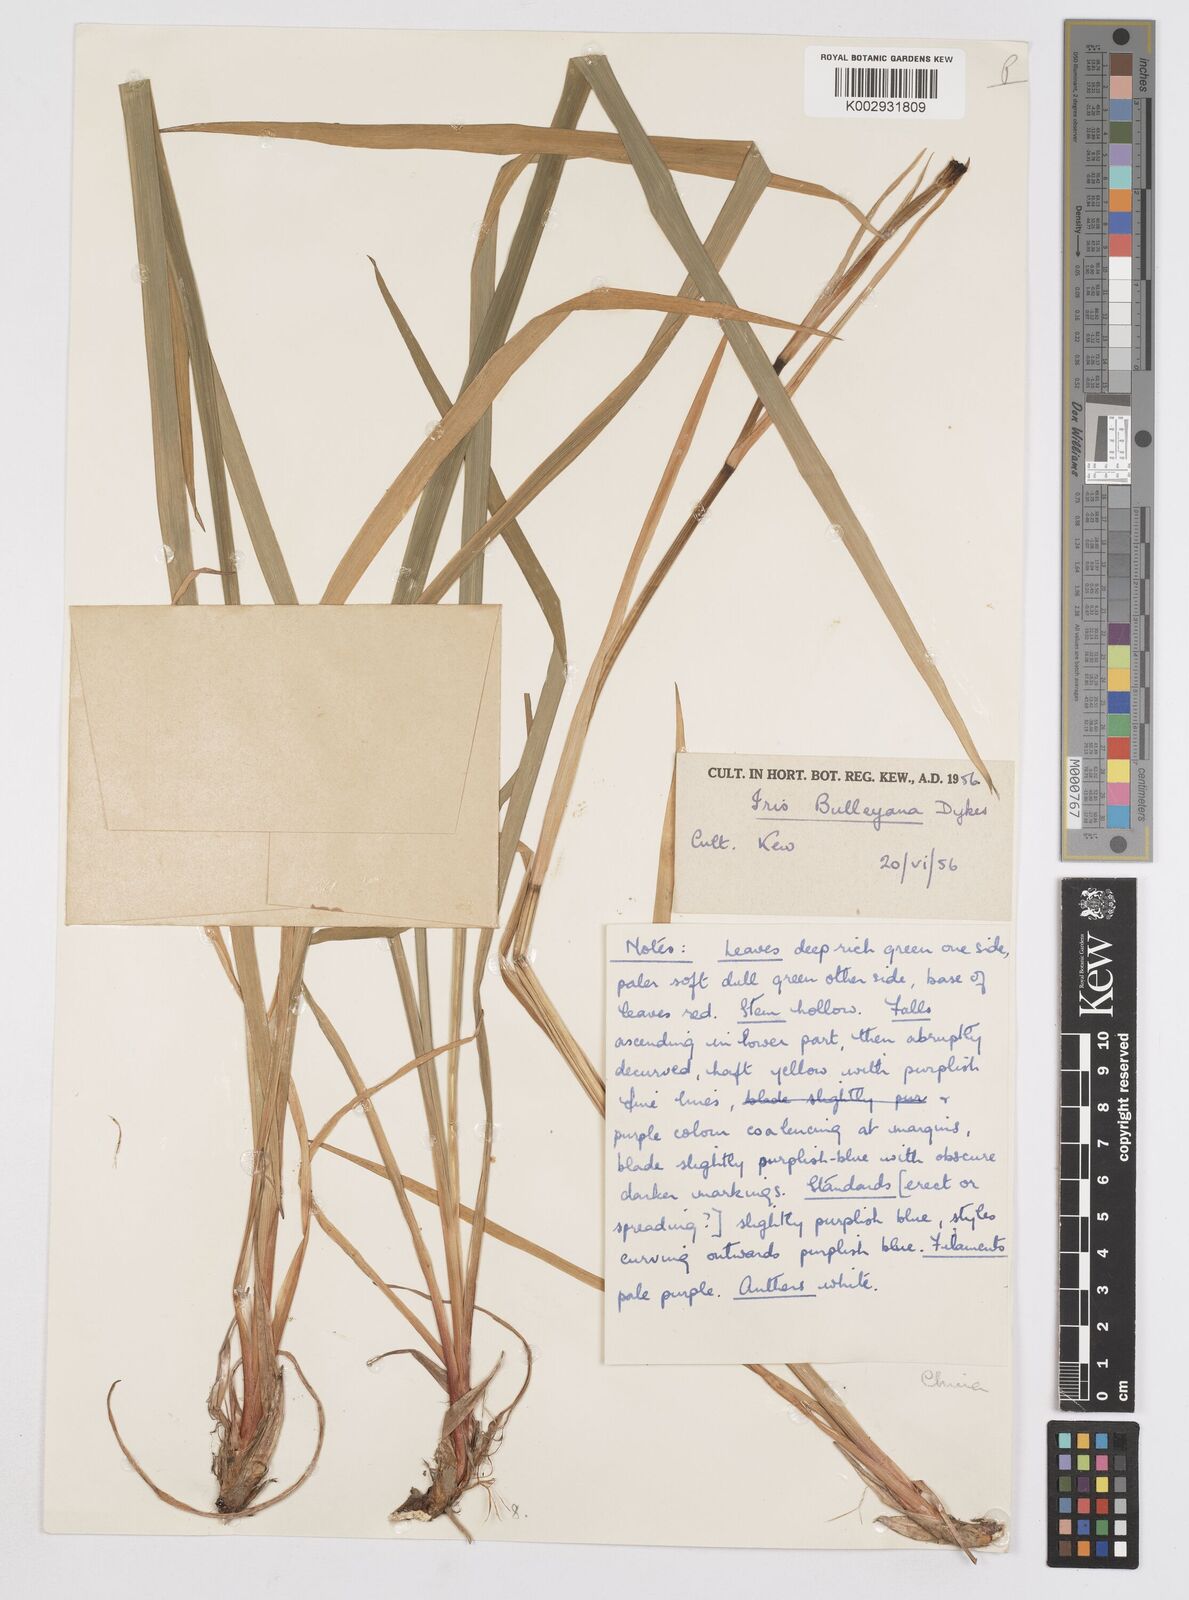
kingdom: Plantae
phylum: Tracheophyta
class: Liliopsida
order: Asparagales
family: Iridaceae
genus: Iris
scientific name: Iris clarkei
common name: Tibet iris
